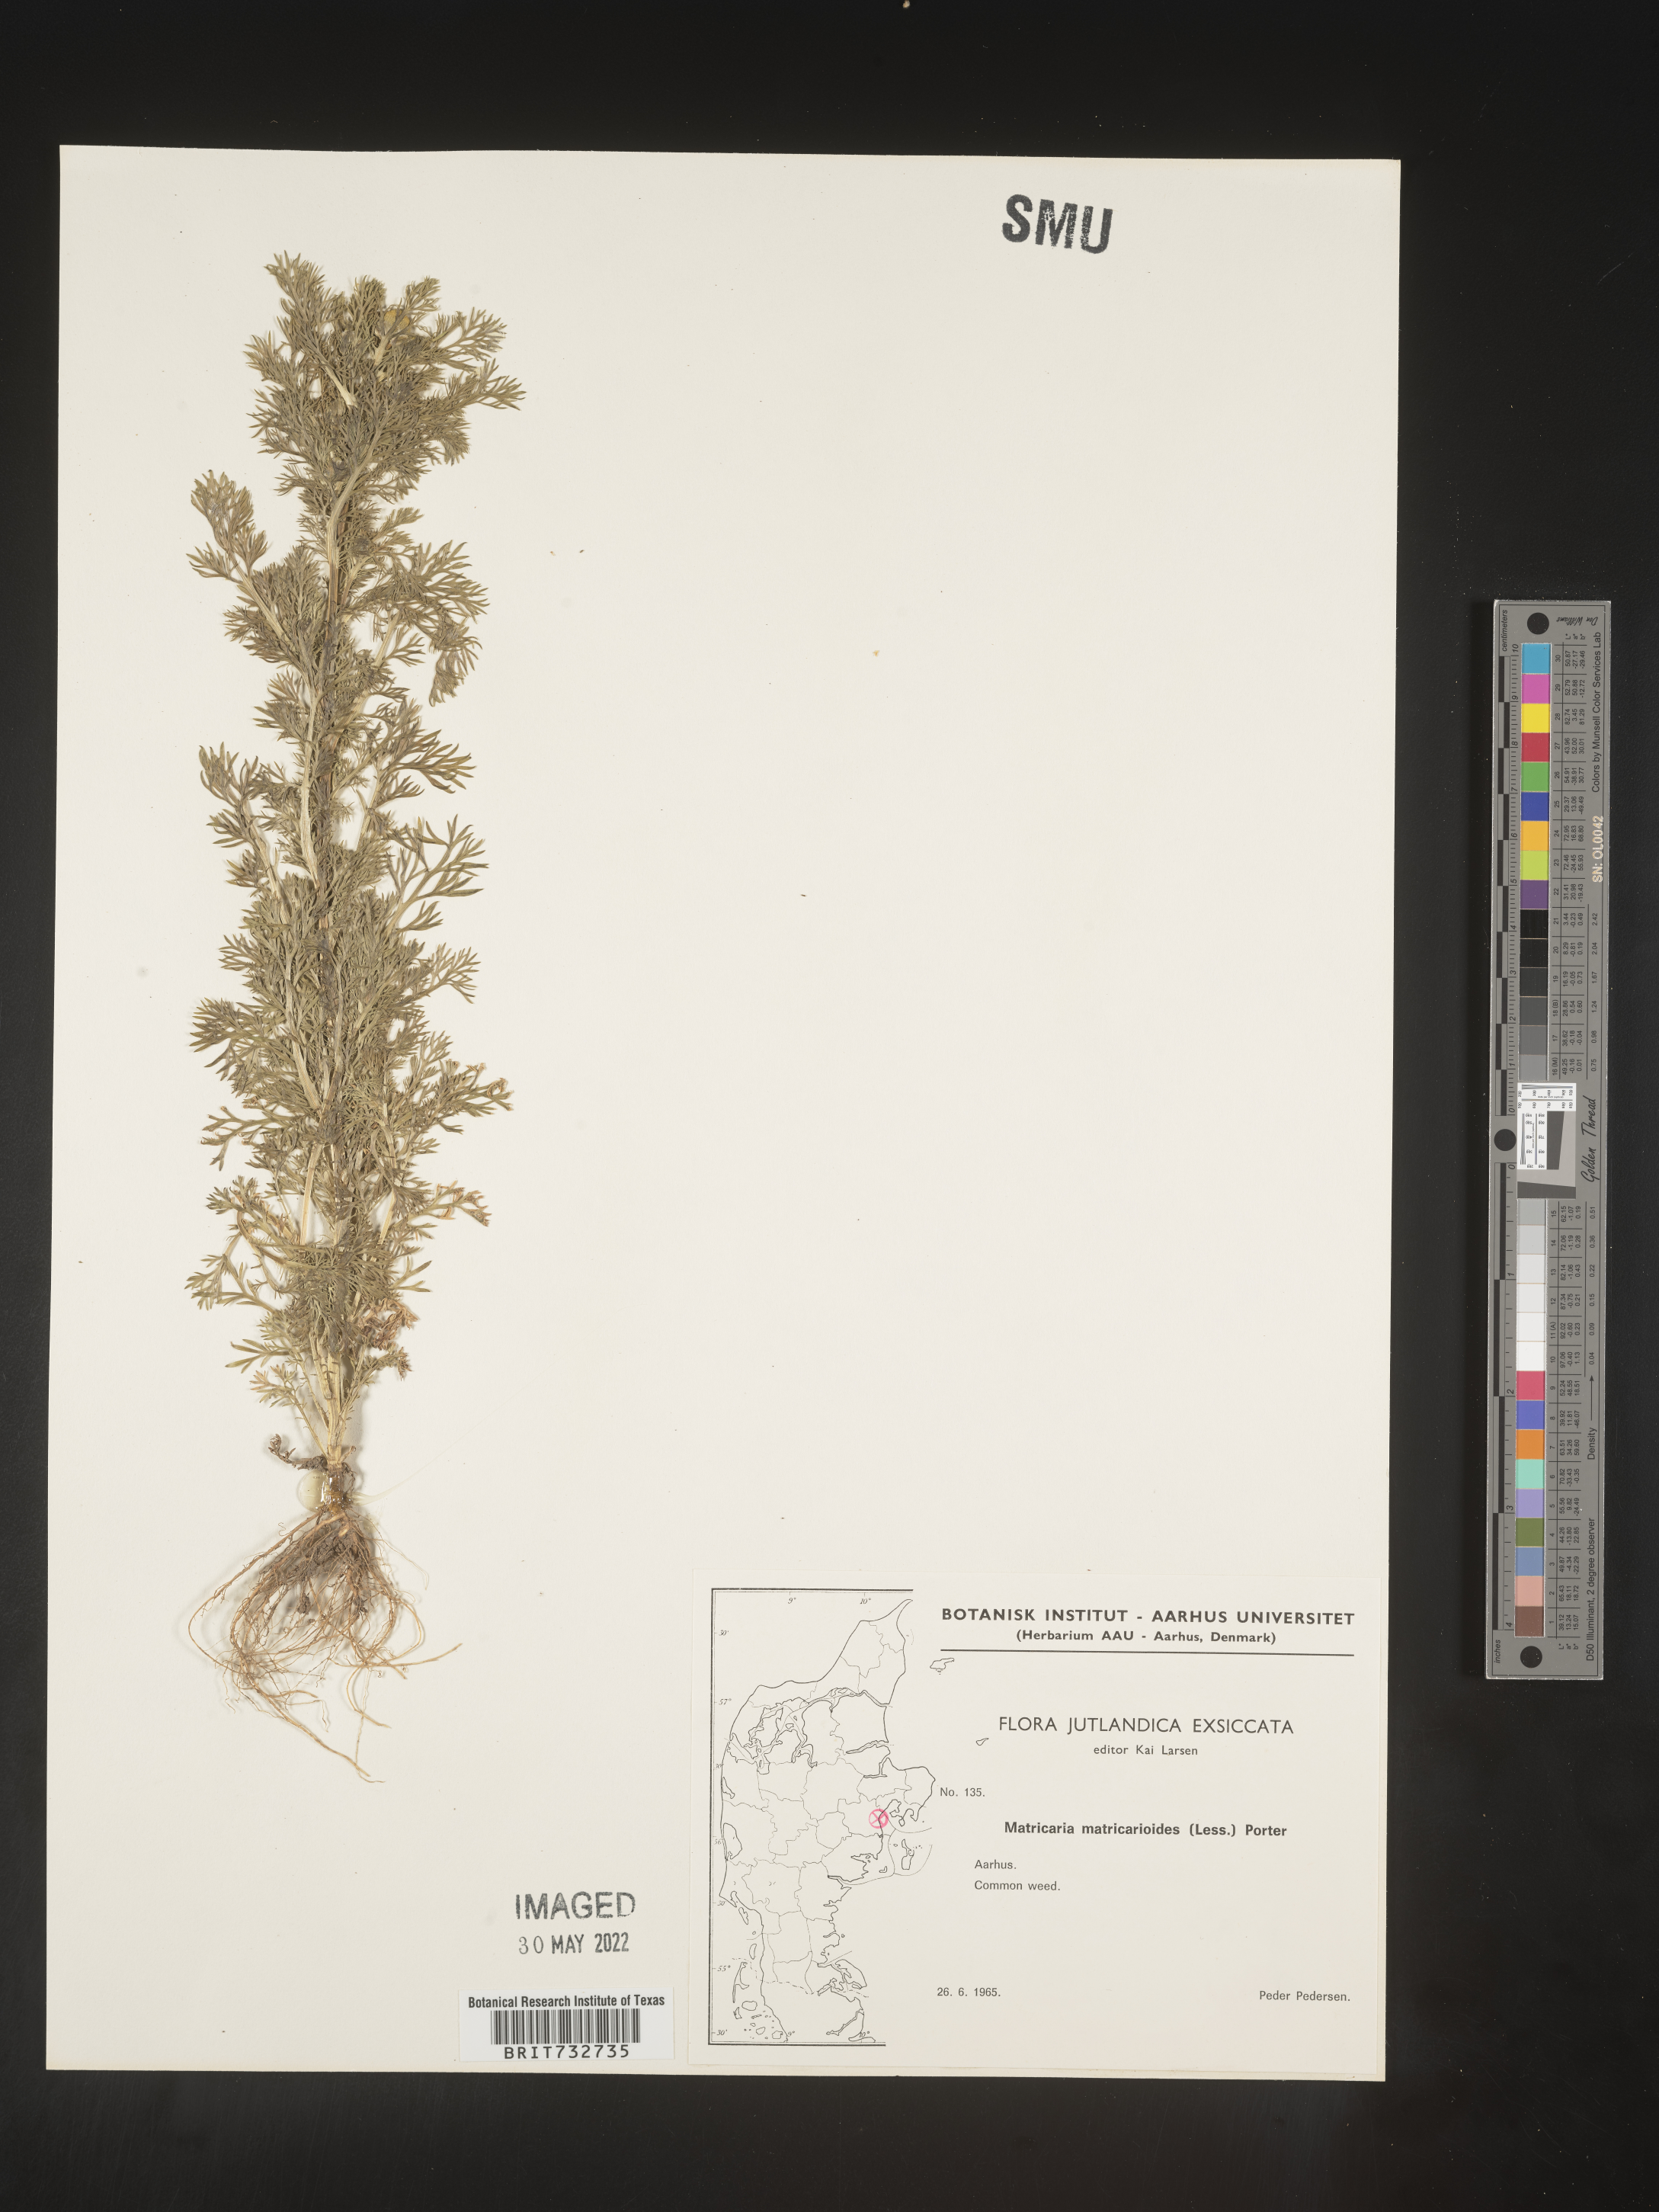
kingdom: Plantae
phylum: Tracheophyta
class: Magnoliopsida
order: Asterales
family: Asteraceae
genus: Matricaria
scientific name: Matricaria
